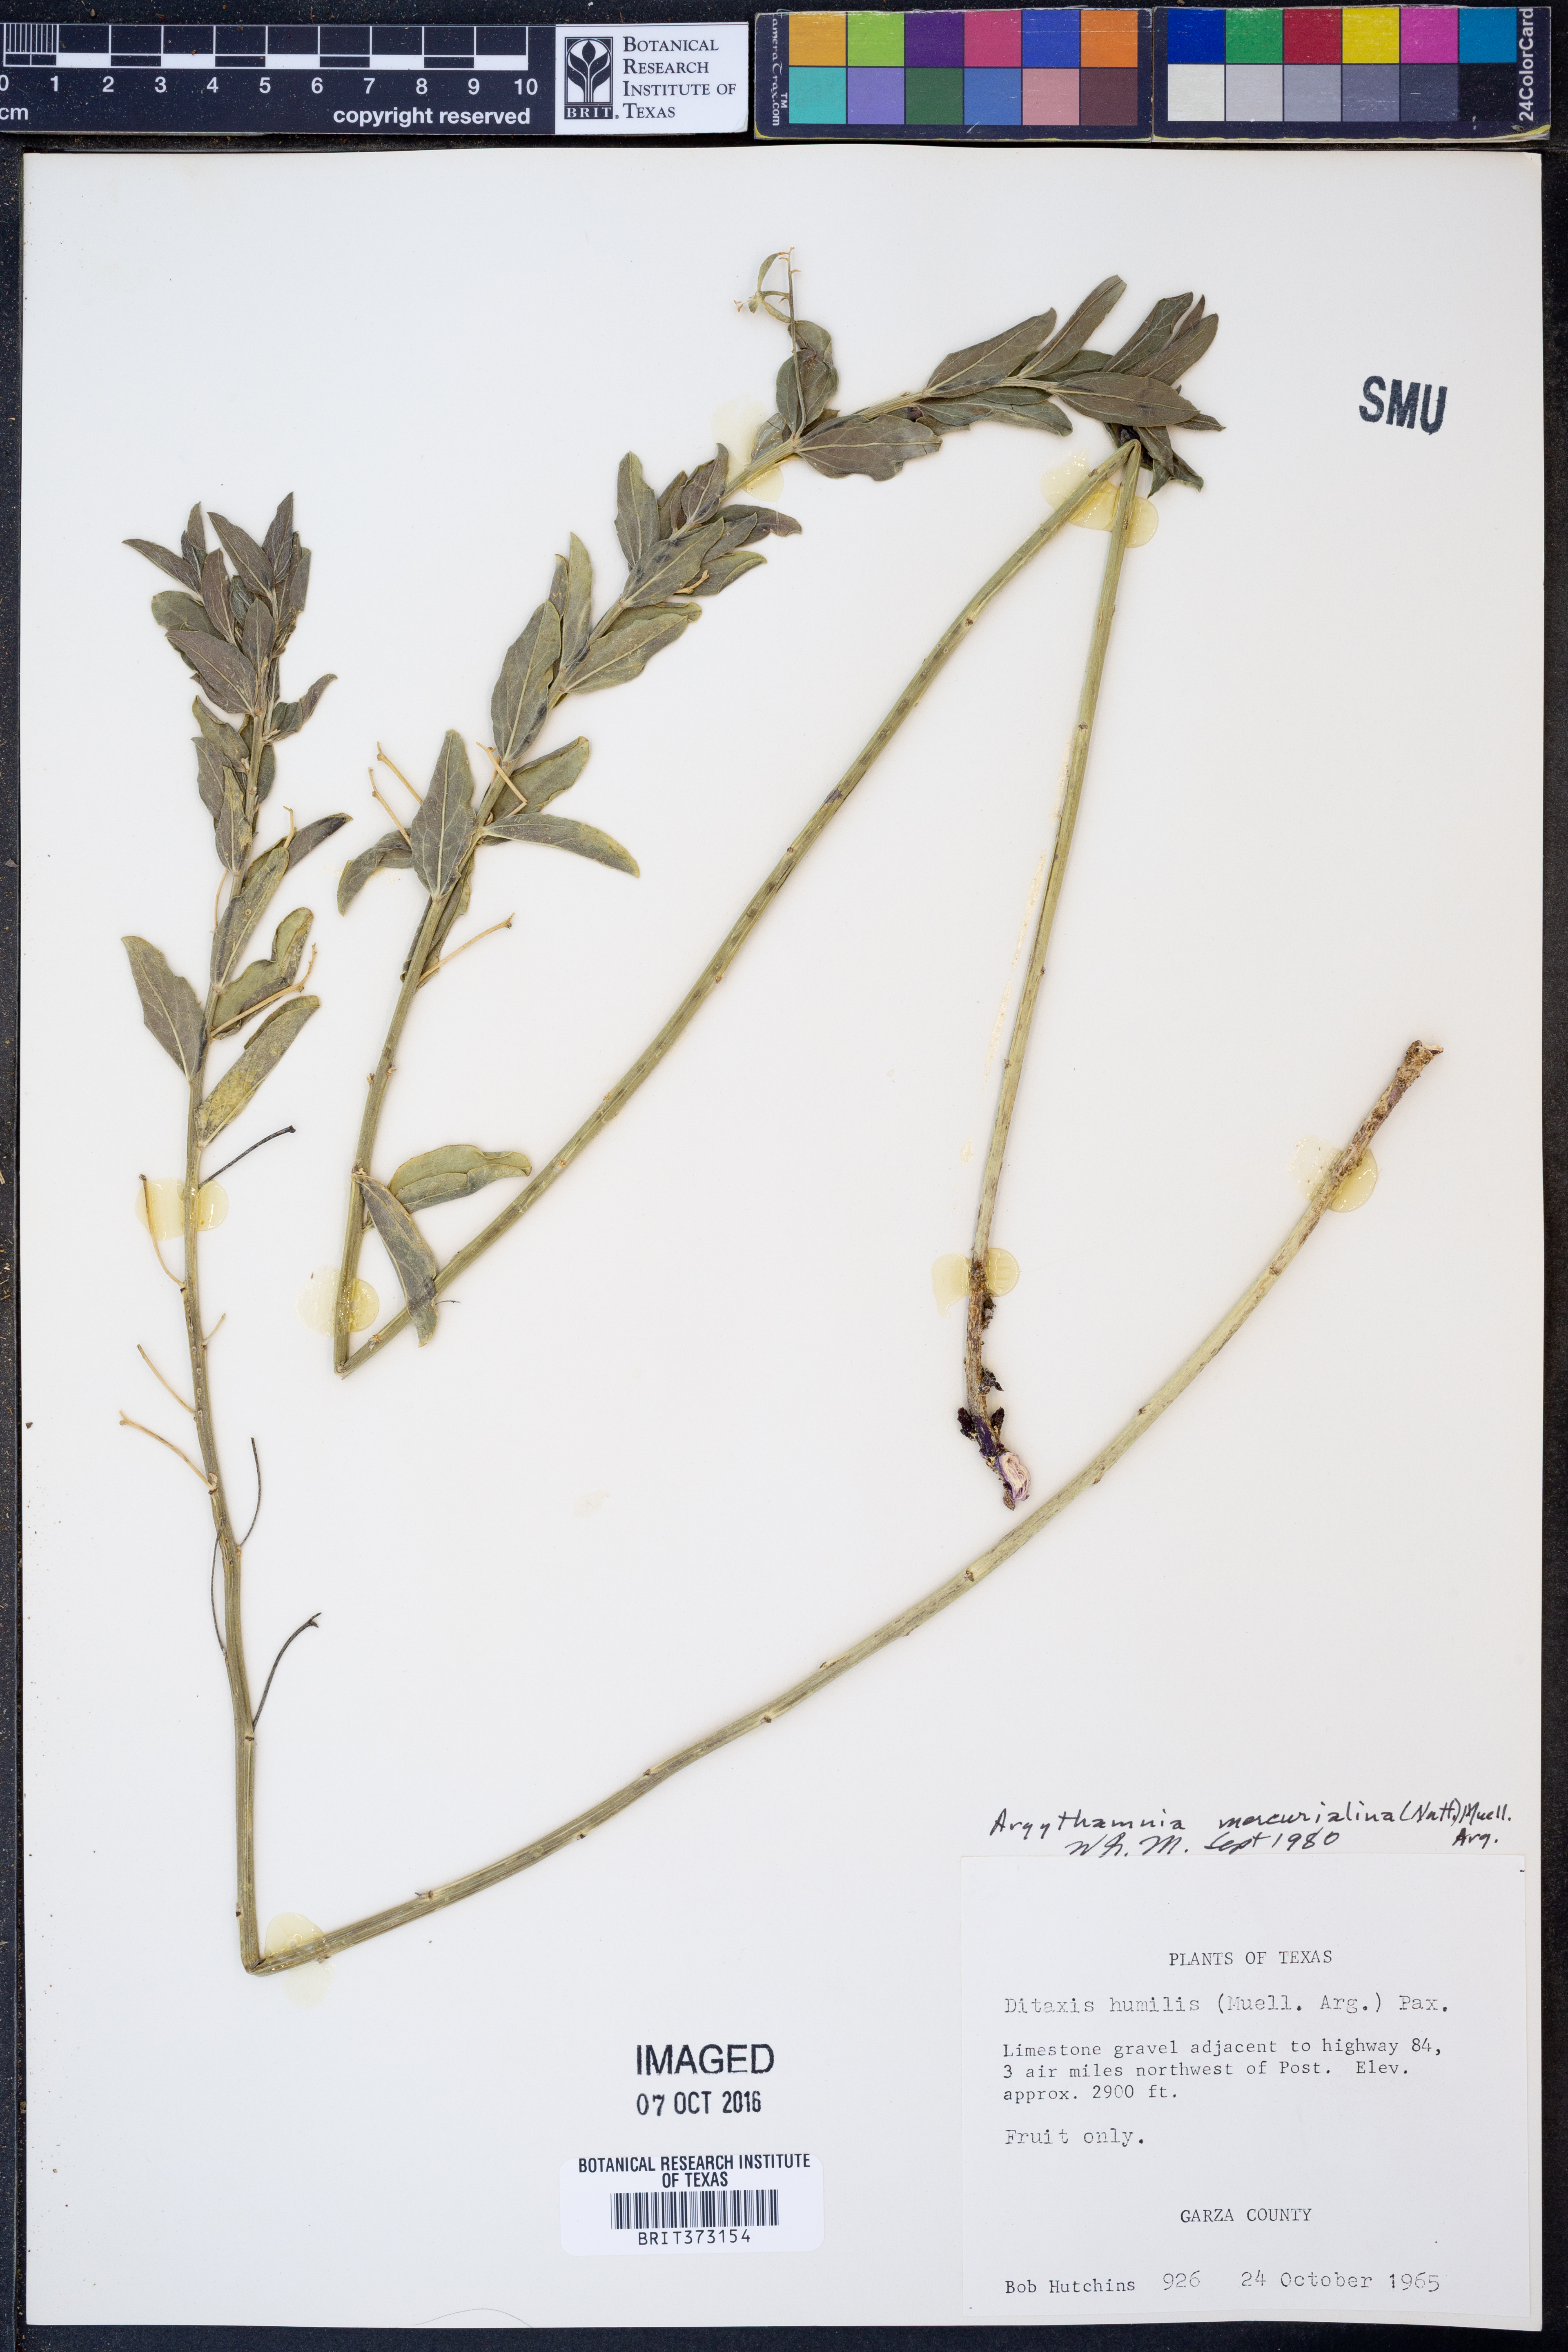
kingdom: Plantae
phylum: Tracheophyta
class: Magnoliopsida
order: Malpighiales
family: Euphorbiaceae
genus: Ditaxis
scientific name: Ditaxis mercurialina
